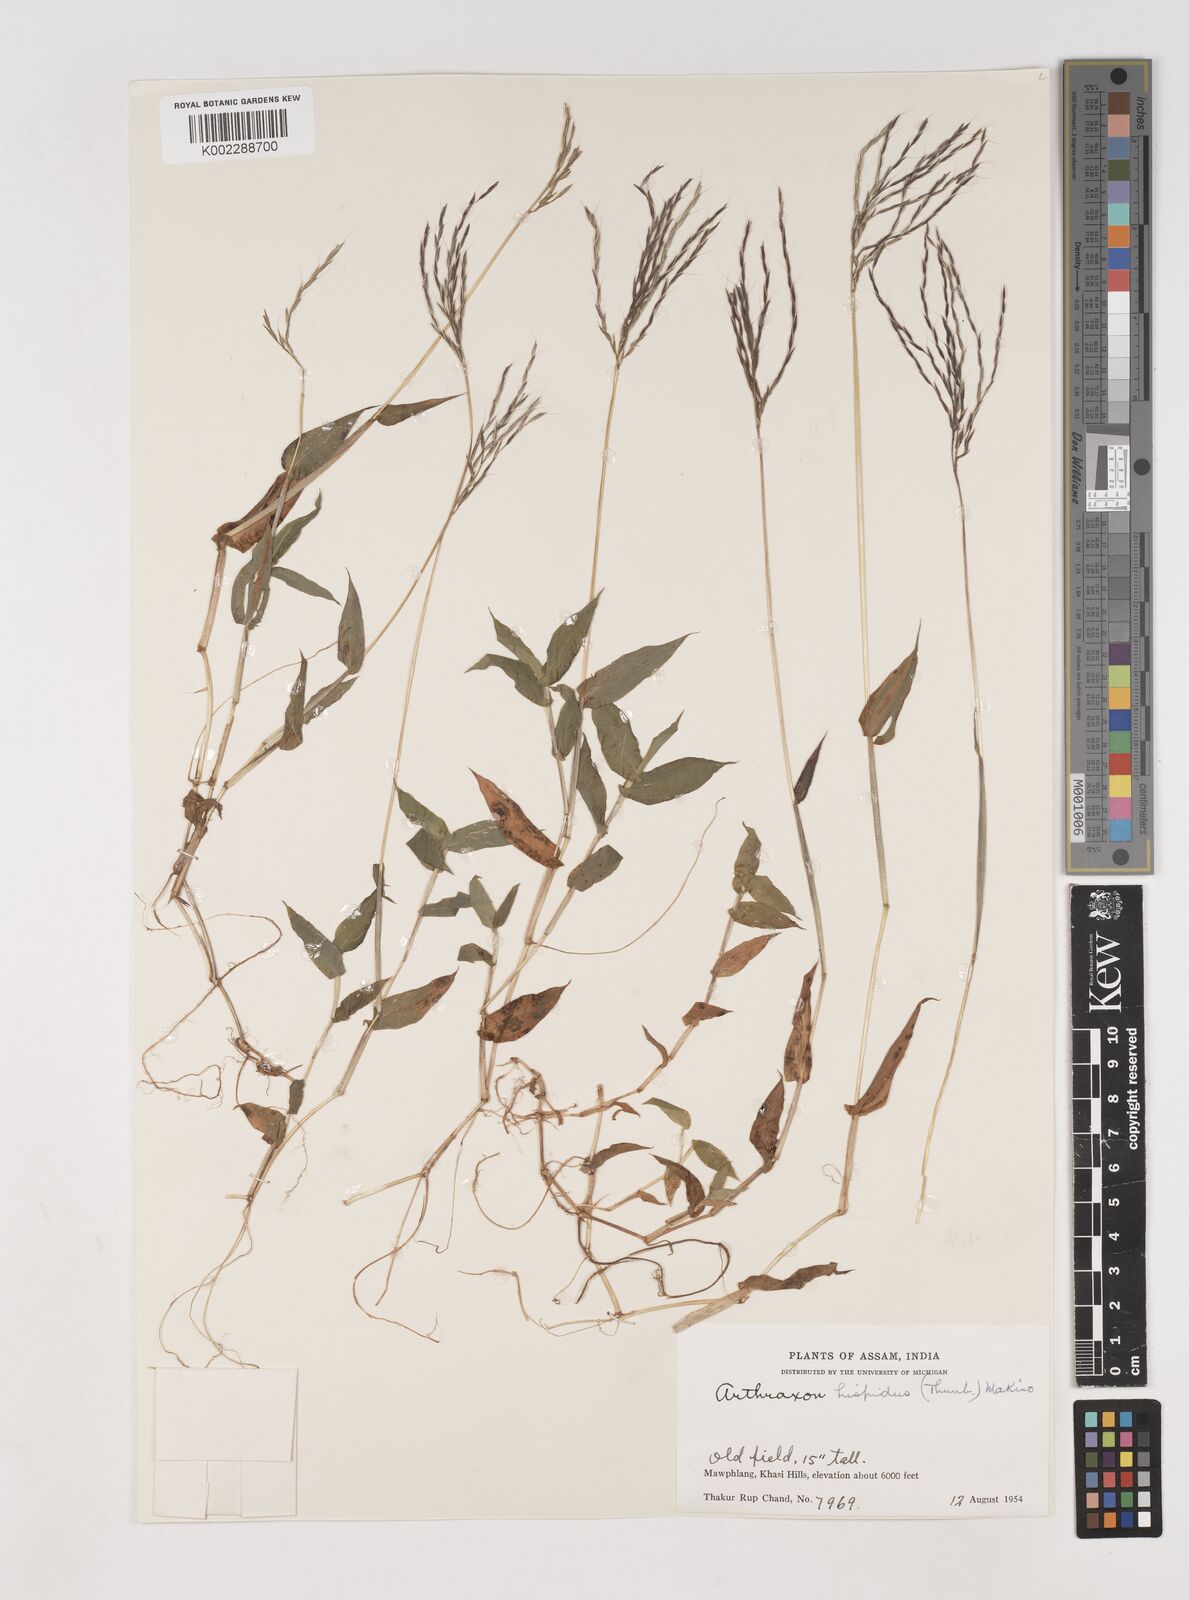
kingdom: Plantae
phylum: Tracheophyta
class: Liliopsida
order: Poales
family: Poaceae
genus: Arthraxon
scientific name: Arthraxon hispidus
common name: Small carpgrass
